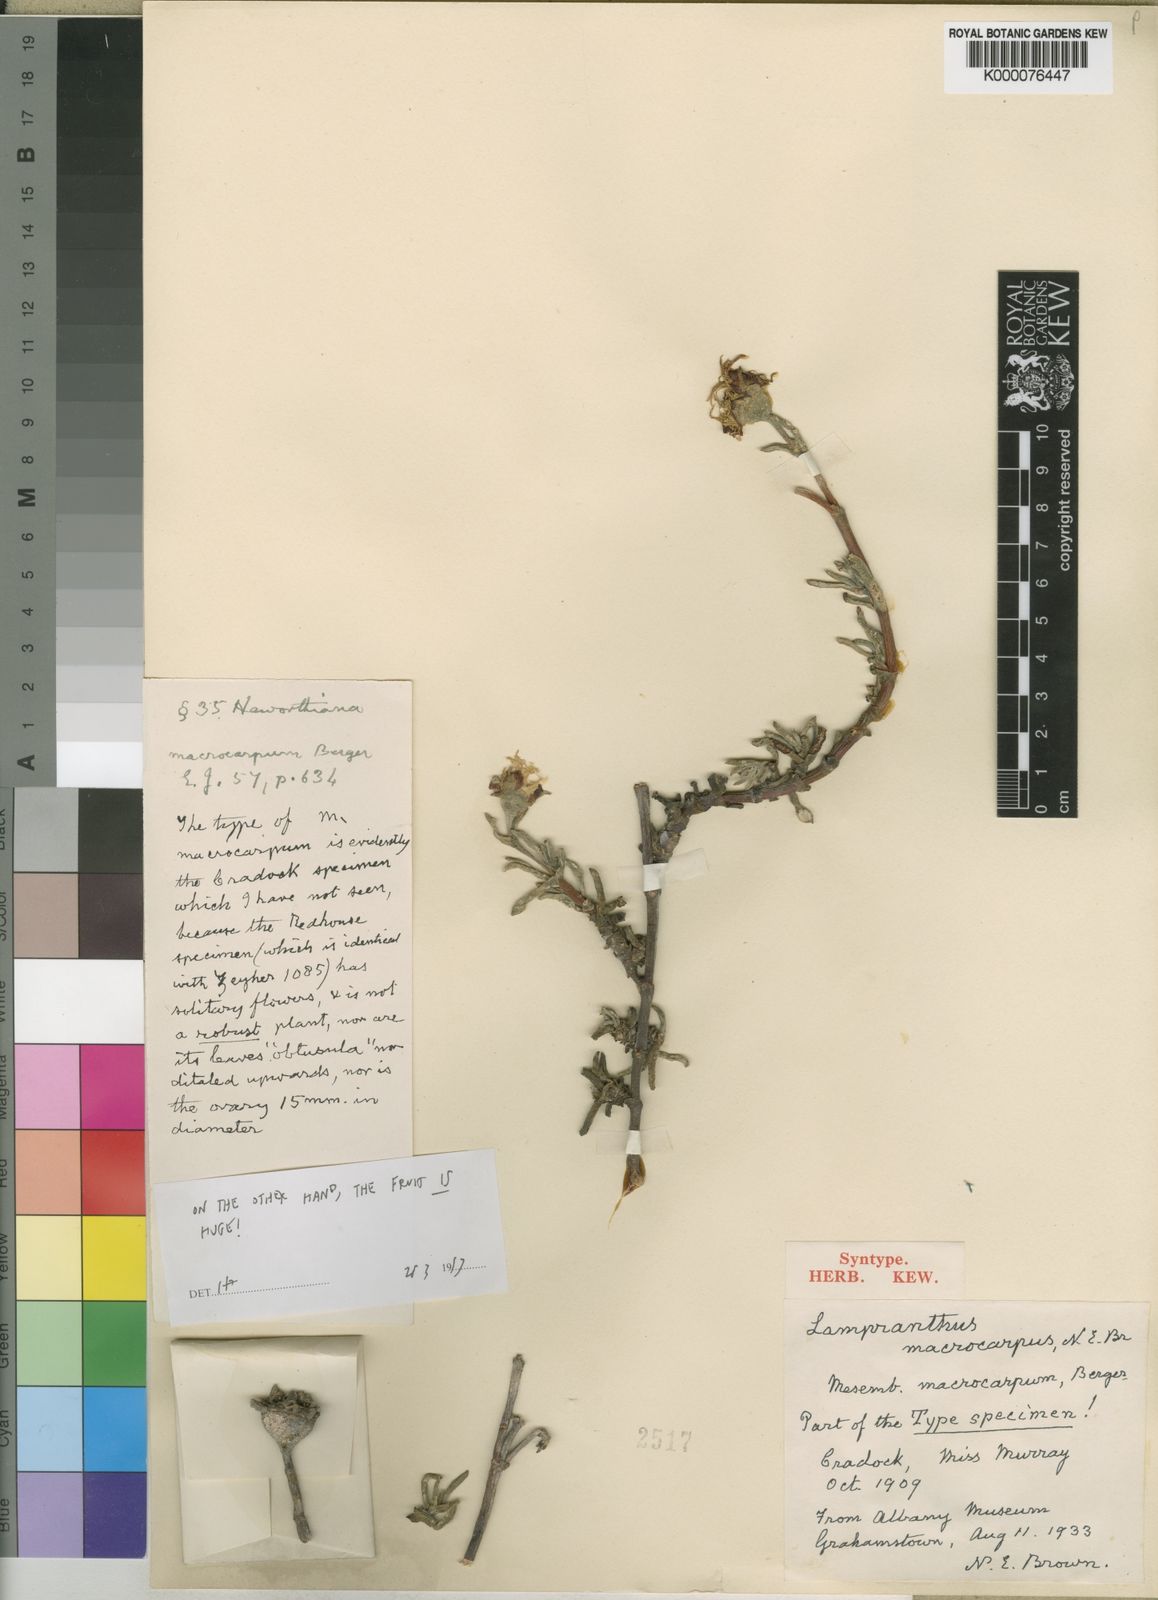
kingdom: Plantae
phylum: Tracheophyta
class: Magnoliopsida
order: Caryophyllales
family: Aizoaceae
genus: Lampranthus
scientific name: Lampranthus macrocarpus
